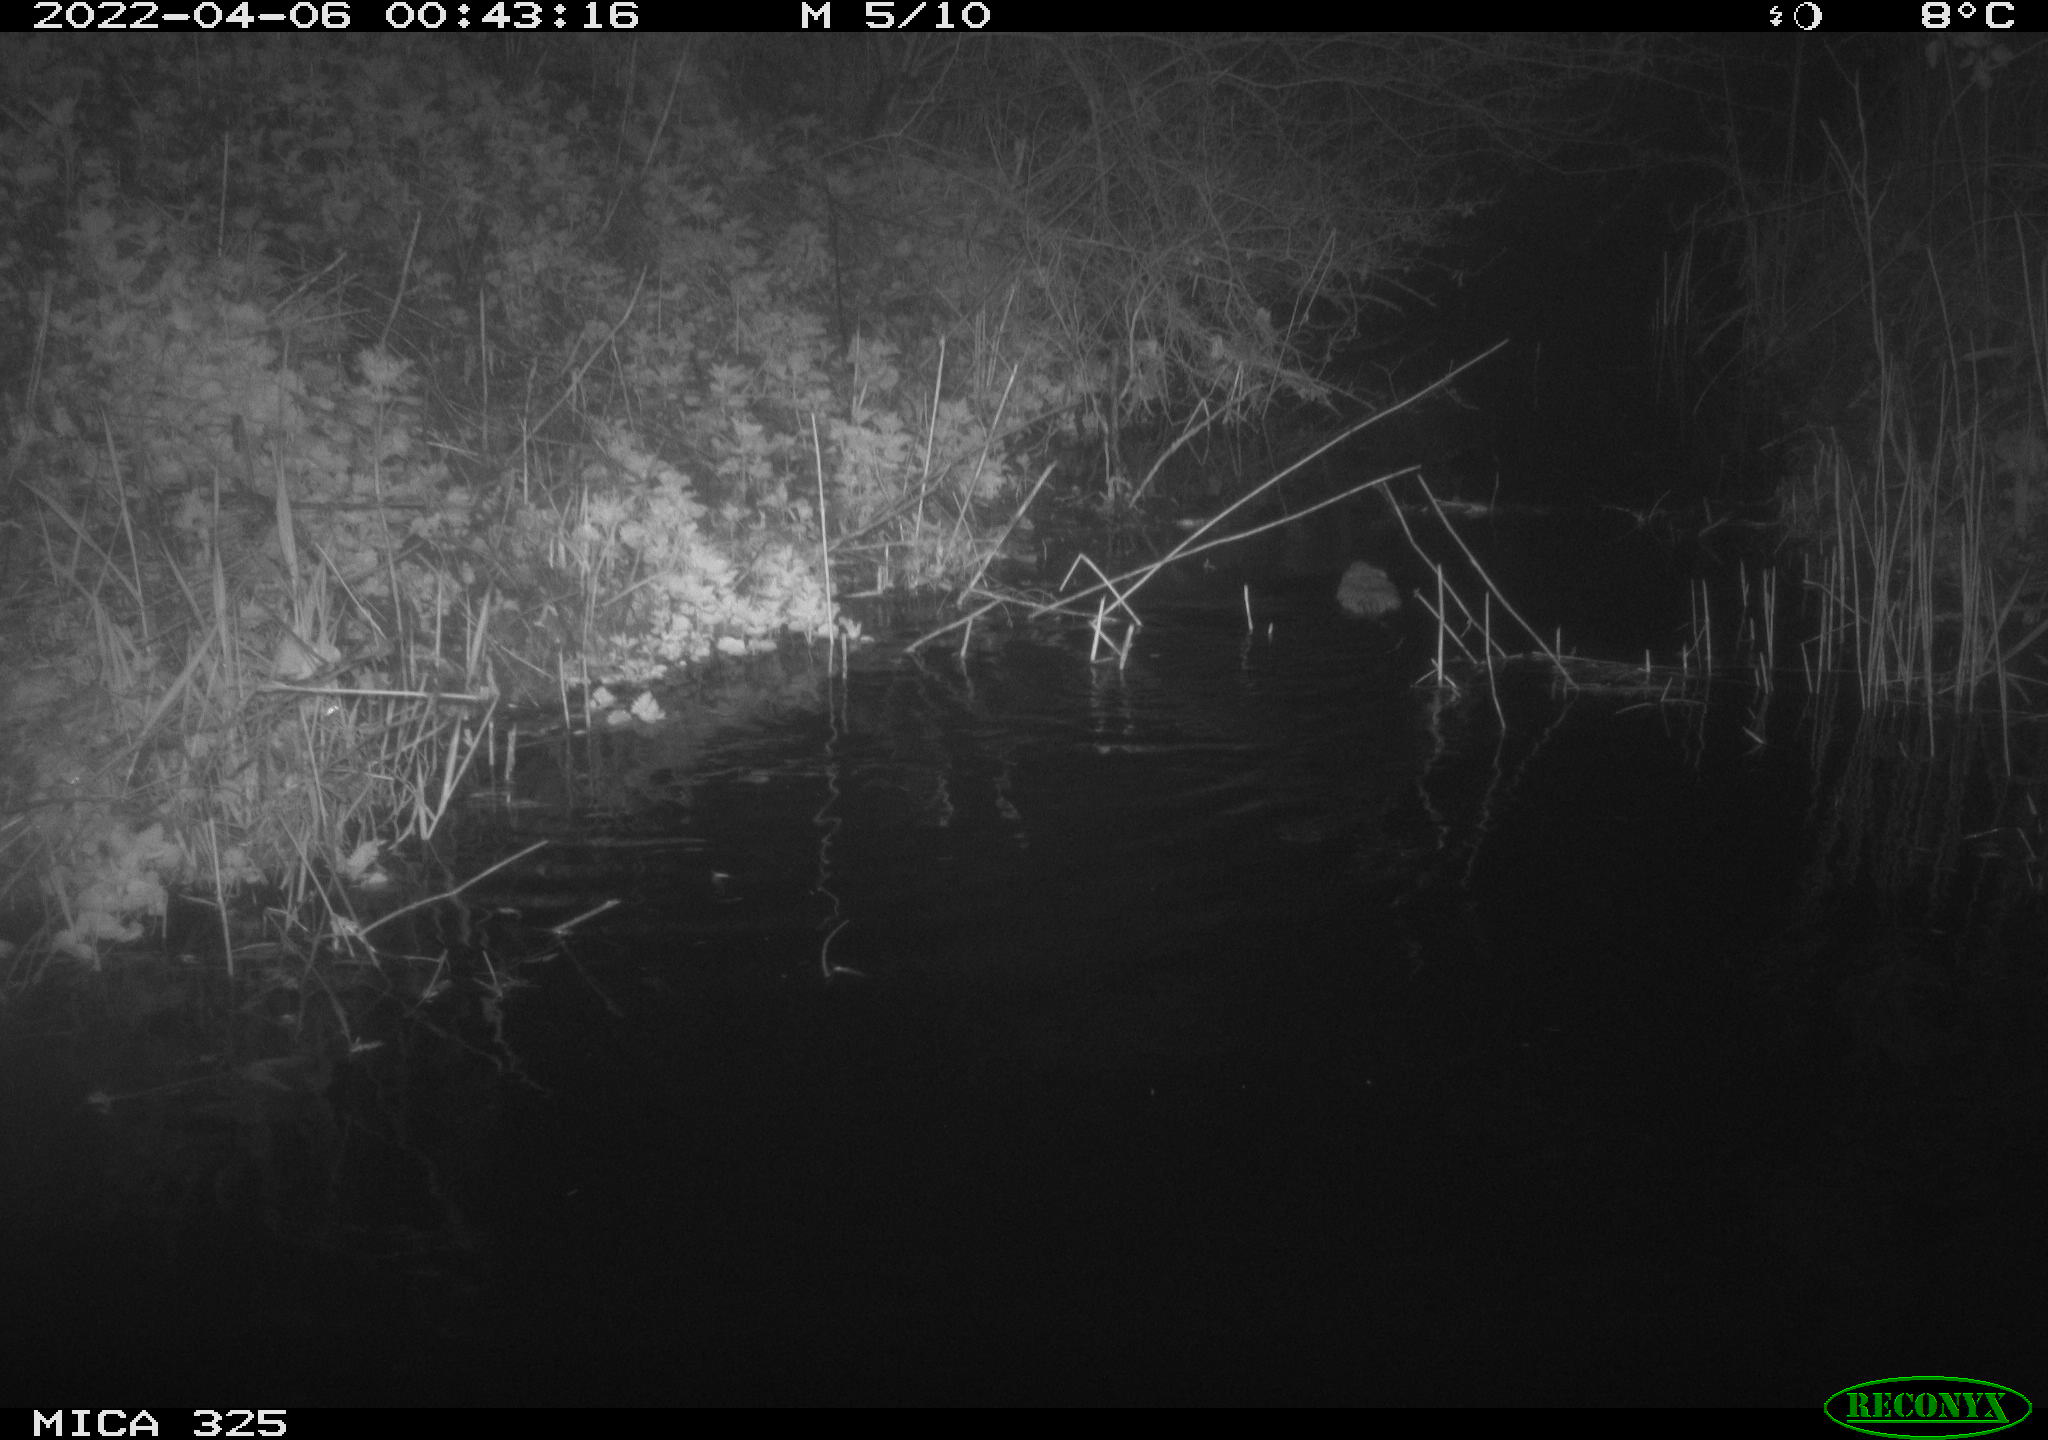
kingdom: Animalia
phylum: Chordata
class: Mammalia
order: Rodentia
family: Cricetidae
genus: Ondatra
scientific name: Ondatra zibethicus
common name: Muskrat
